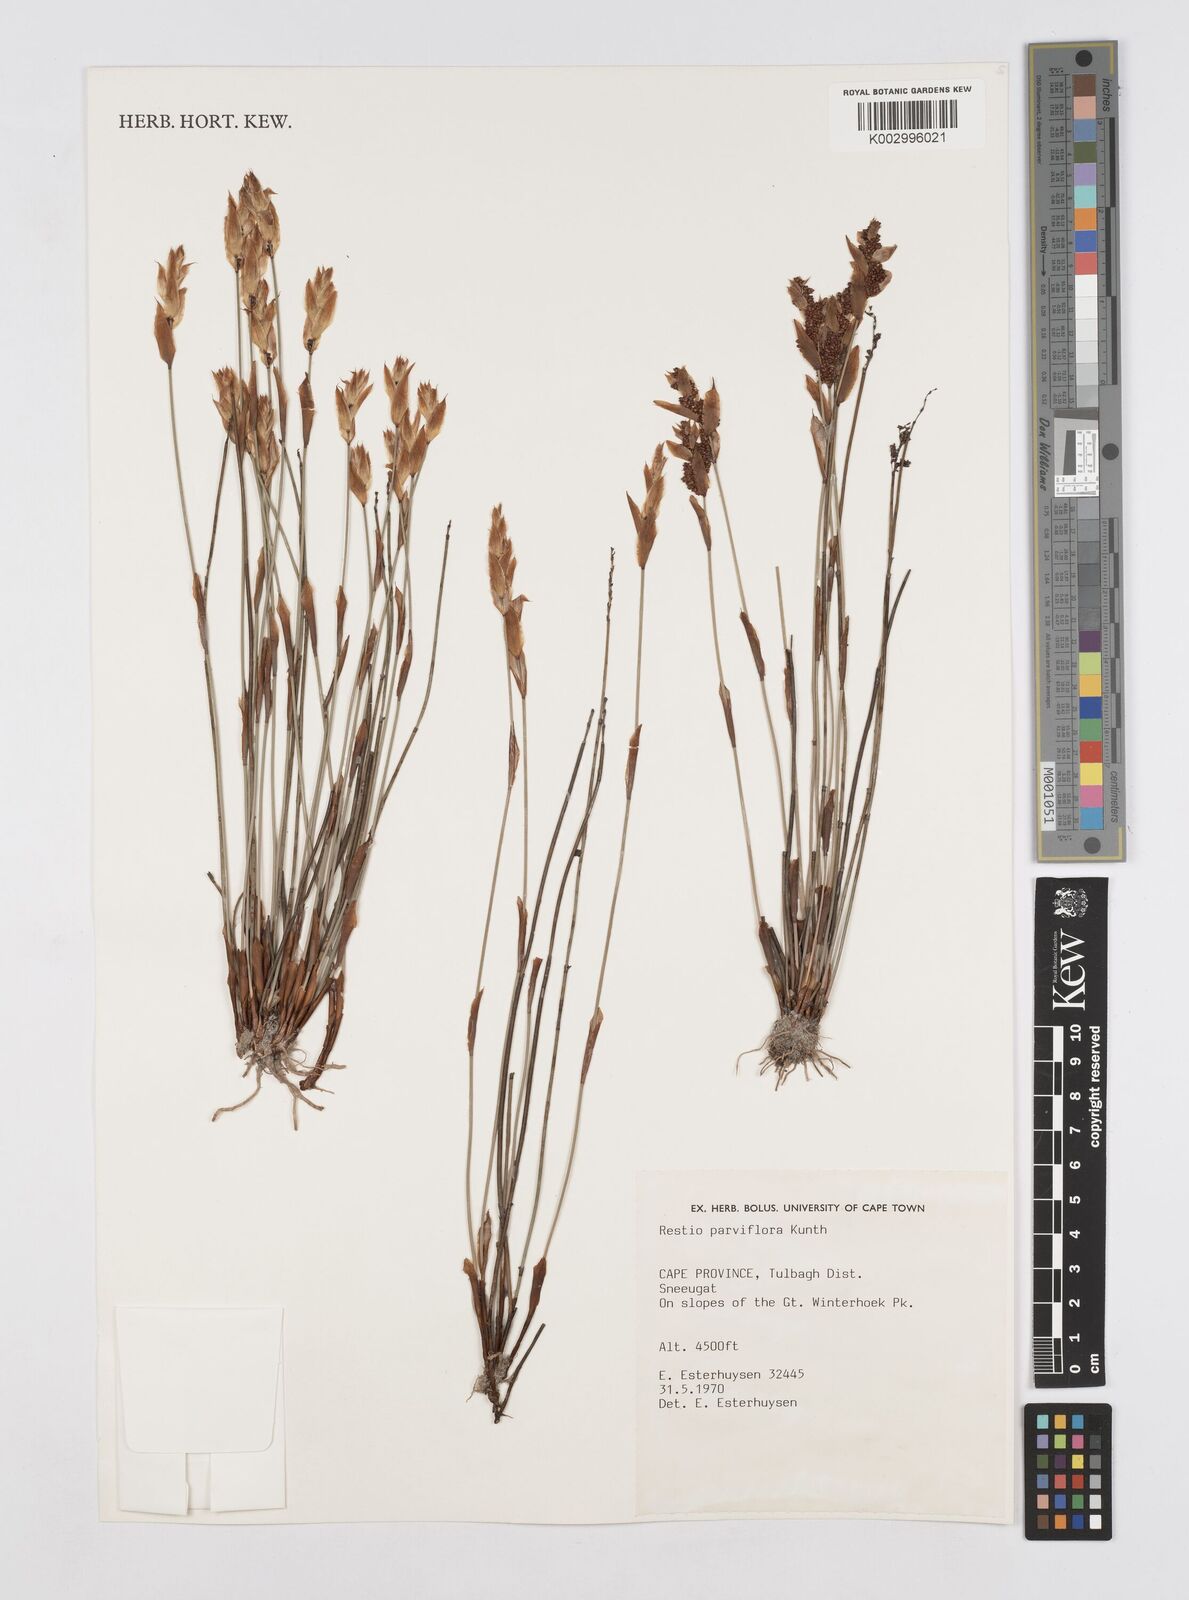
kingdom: Plantae
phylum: Tracheophyta
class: Liliopsida
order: Poales
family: Restionaceae
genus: Cannomois
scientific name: Cannomois parviflora
